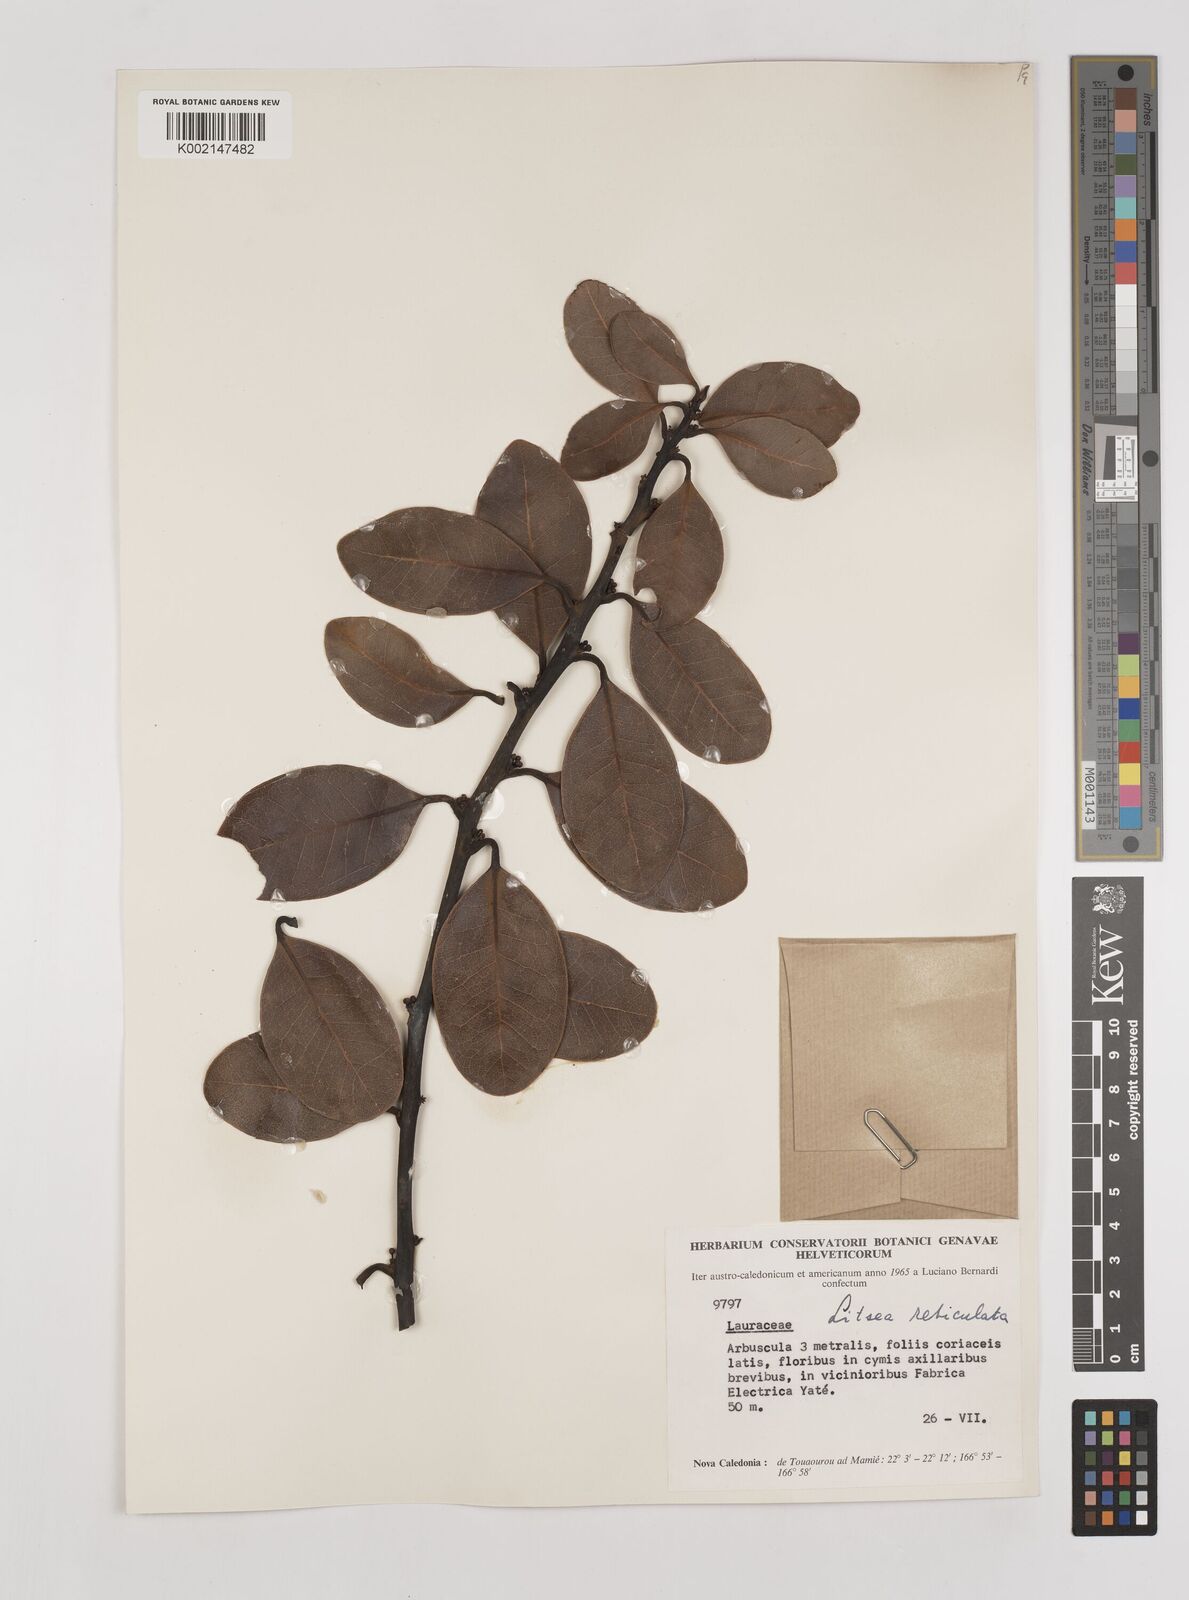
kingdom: Plantae
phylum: Tracheophyta
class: Magnoliopsida
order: Laurales
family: Lauraceae
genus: Litsea
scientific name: Litsea reticulata
